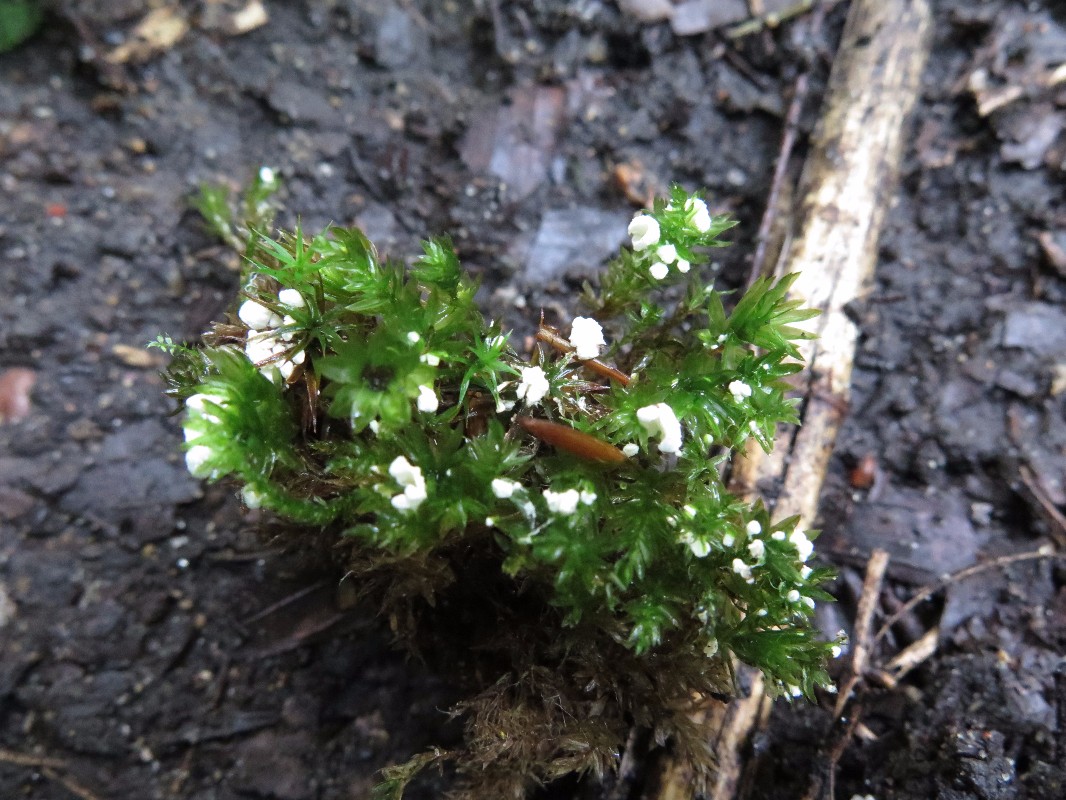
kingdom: Fungi
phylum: Basidiomycota
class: Agaricomycetes
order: Agaricales
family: Tricholomataceae
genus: Rimbachia
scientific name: Rimbachia arachnoidea
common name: Almindelig mosskål
